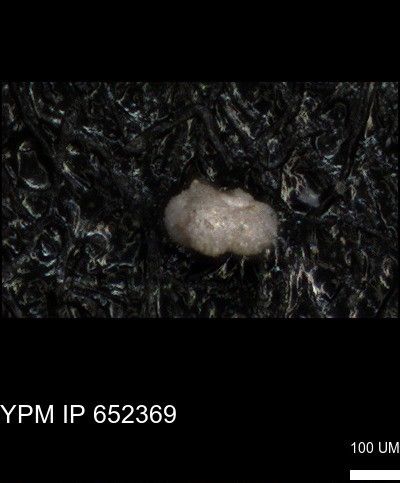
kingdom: Chromista
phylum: Foraminifera
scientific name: Foraminifera
